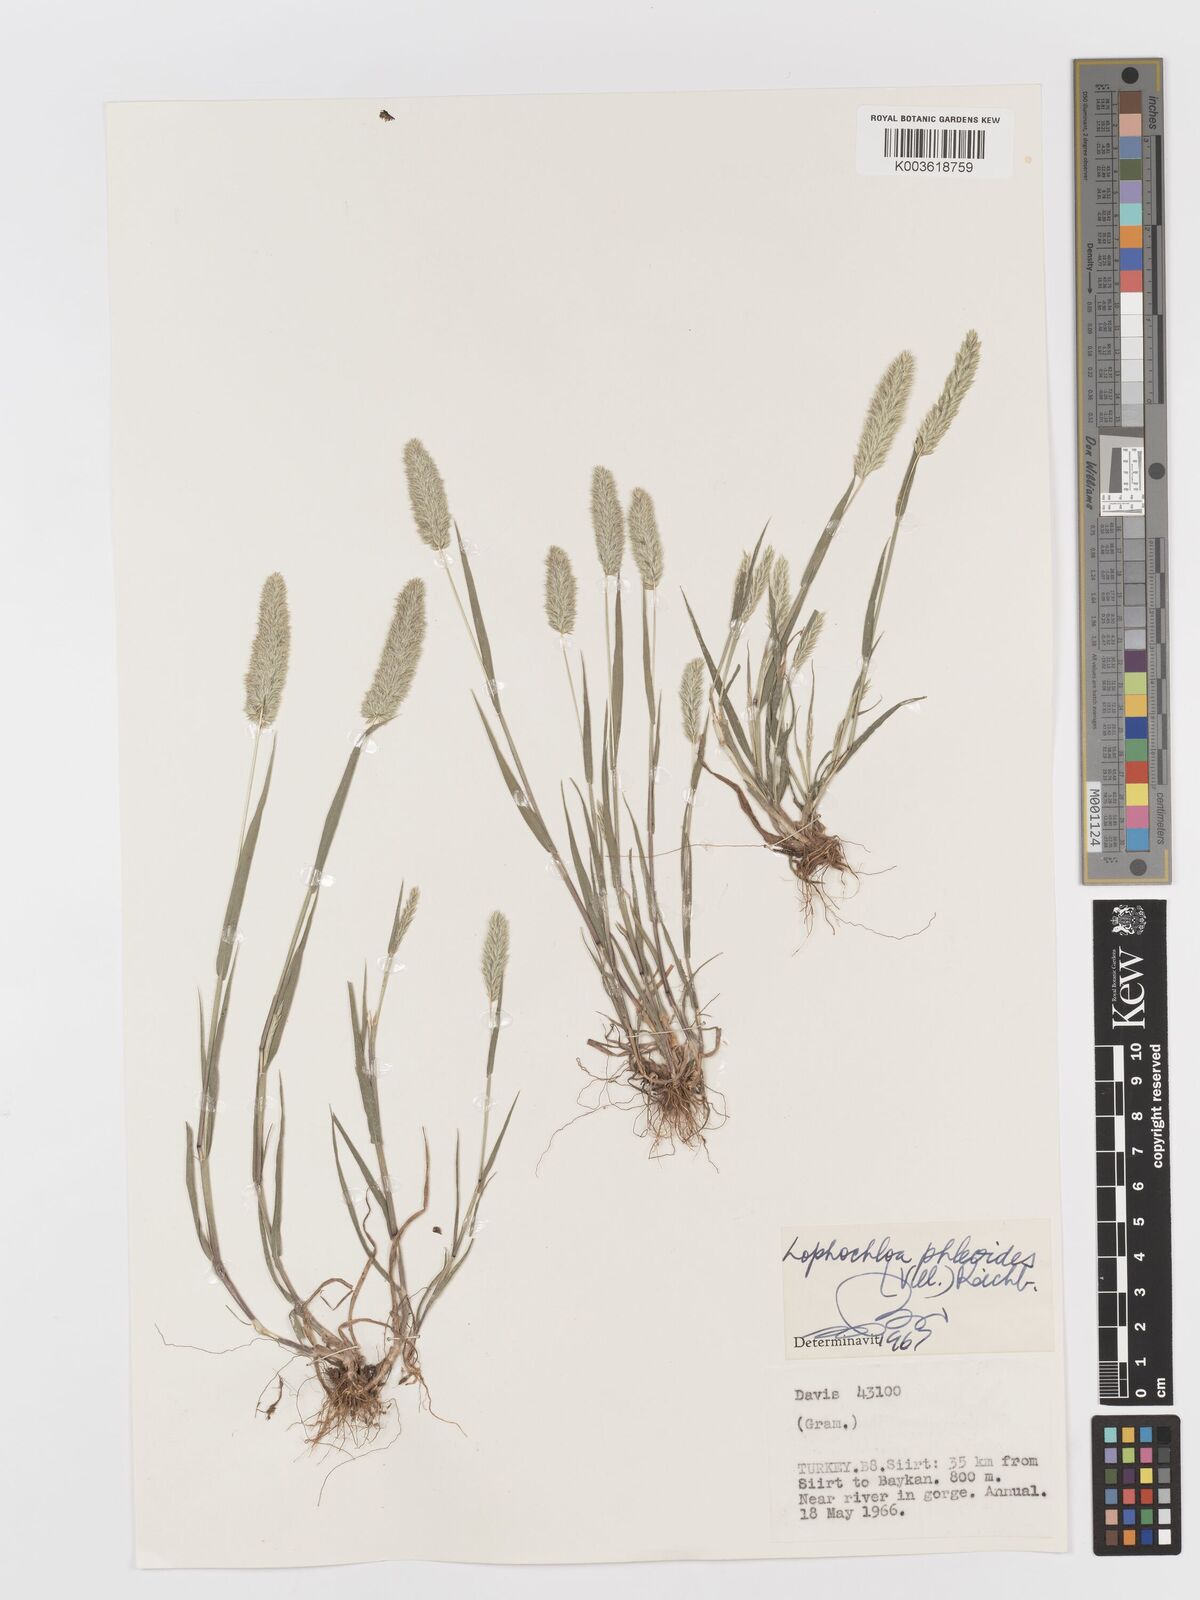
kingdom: Plantae
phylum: Tracheophyta
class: Liliopsida
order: Poales
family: Poaceae
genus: Rostraria
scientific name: Rostraria cristata
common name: Mediterranean hair-grass
